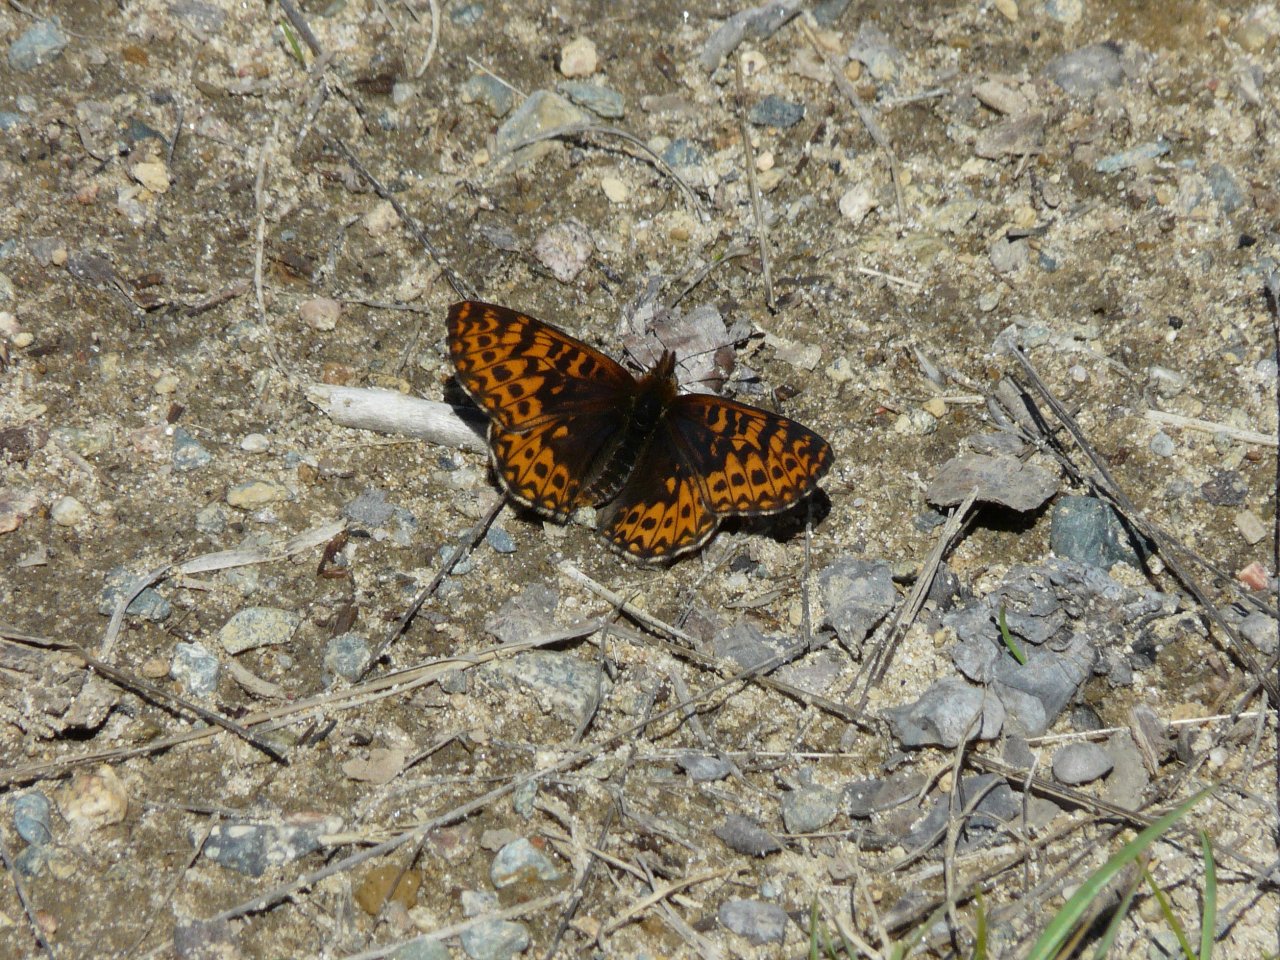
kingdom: Animalia
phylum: Arthropoda
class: Insecta
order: Lepidoptera
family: Nymphalidae
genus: Boloria
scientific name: Boloria freija
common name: Freija Fritillary
